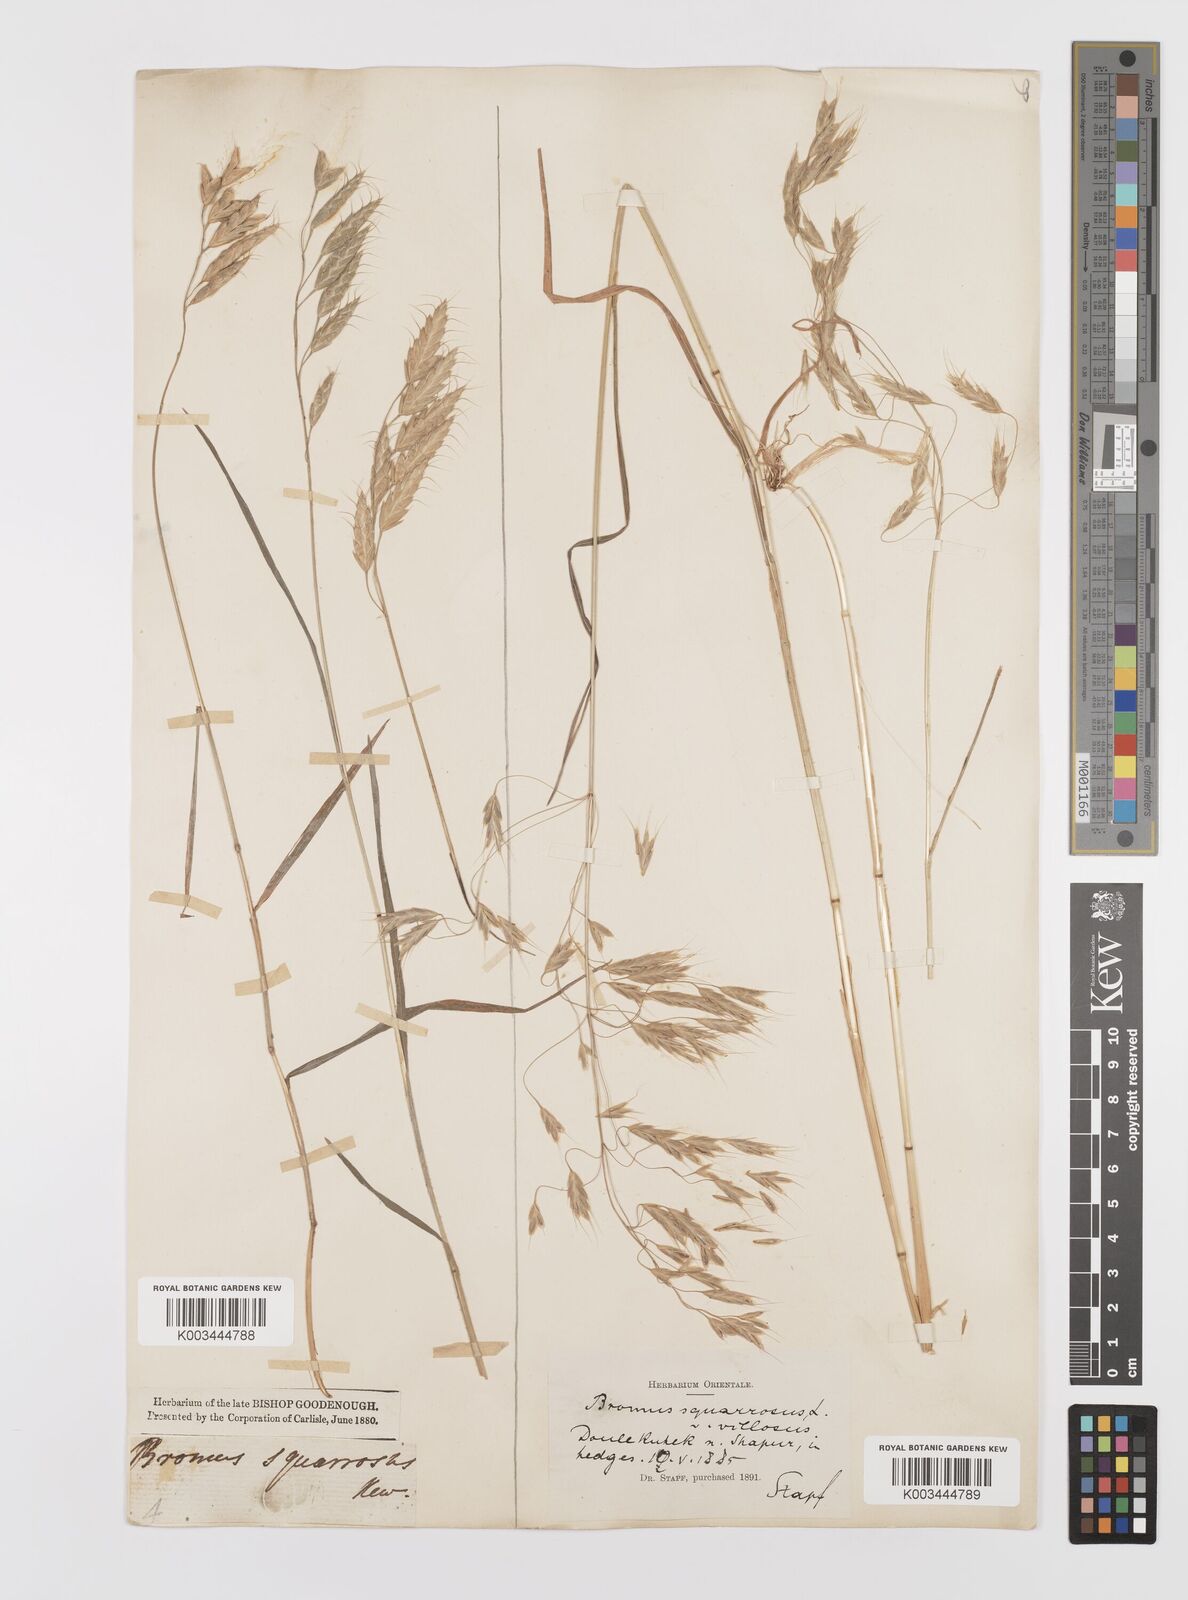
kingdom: Plantae
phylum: Tracheophyta
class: Liliopsida
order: Poales
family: Poaceae
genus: Bromus
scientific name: Bromus squarrosus
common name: Corn brome
